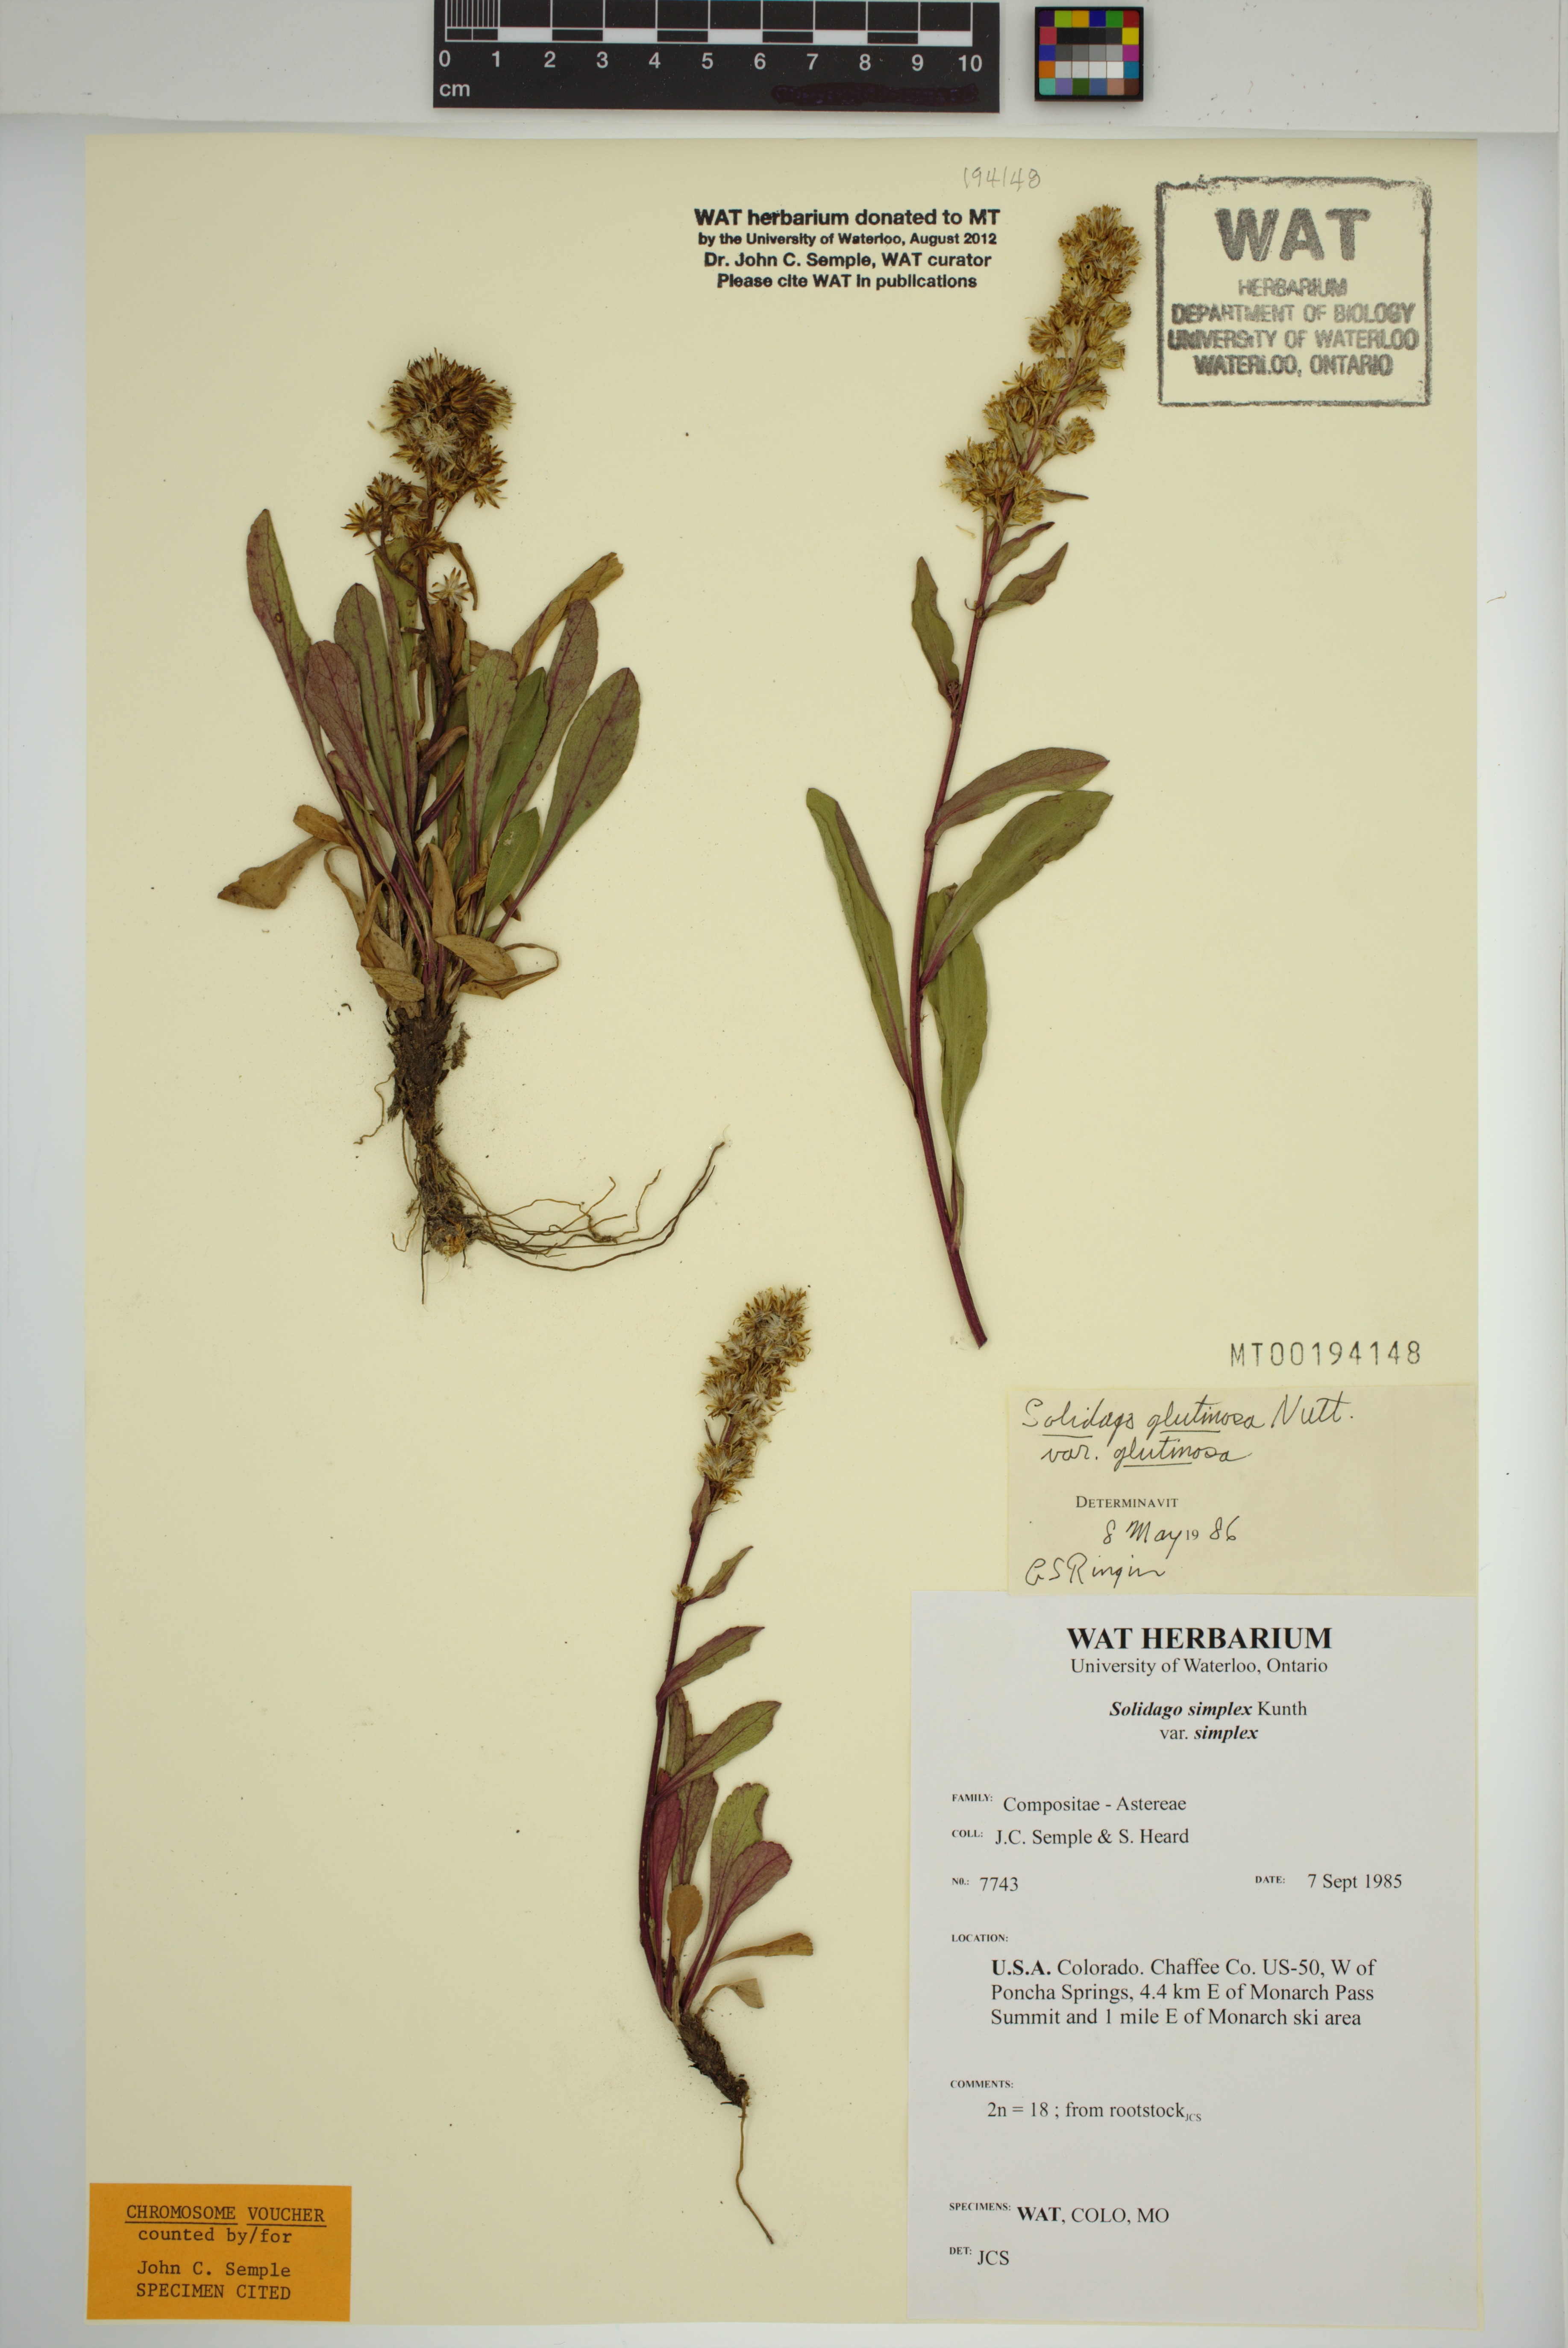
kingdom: Plantae
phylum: Tracheophyta
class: Magnoliopsida
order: Asterales
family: Asteraceae
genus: Solidago
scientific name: Solidago glutinosa
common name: Decumbent goldenrod
